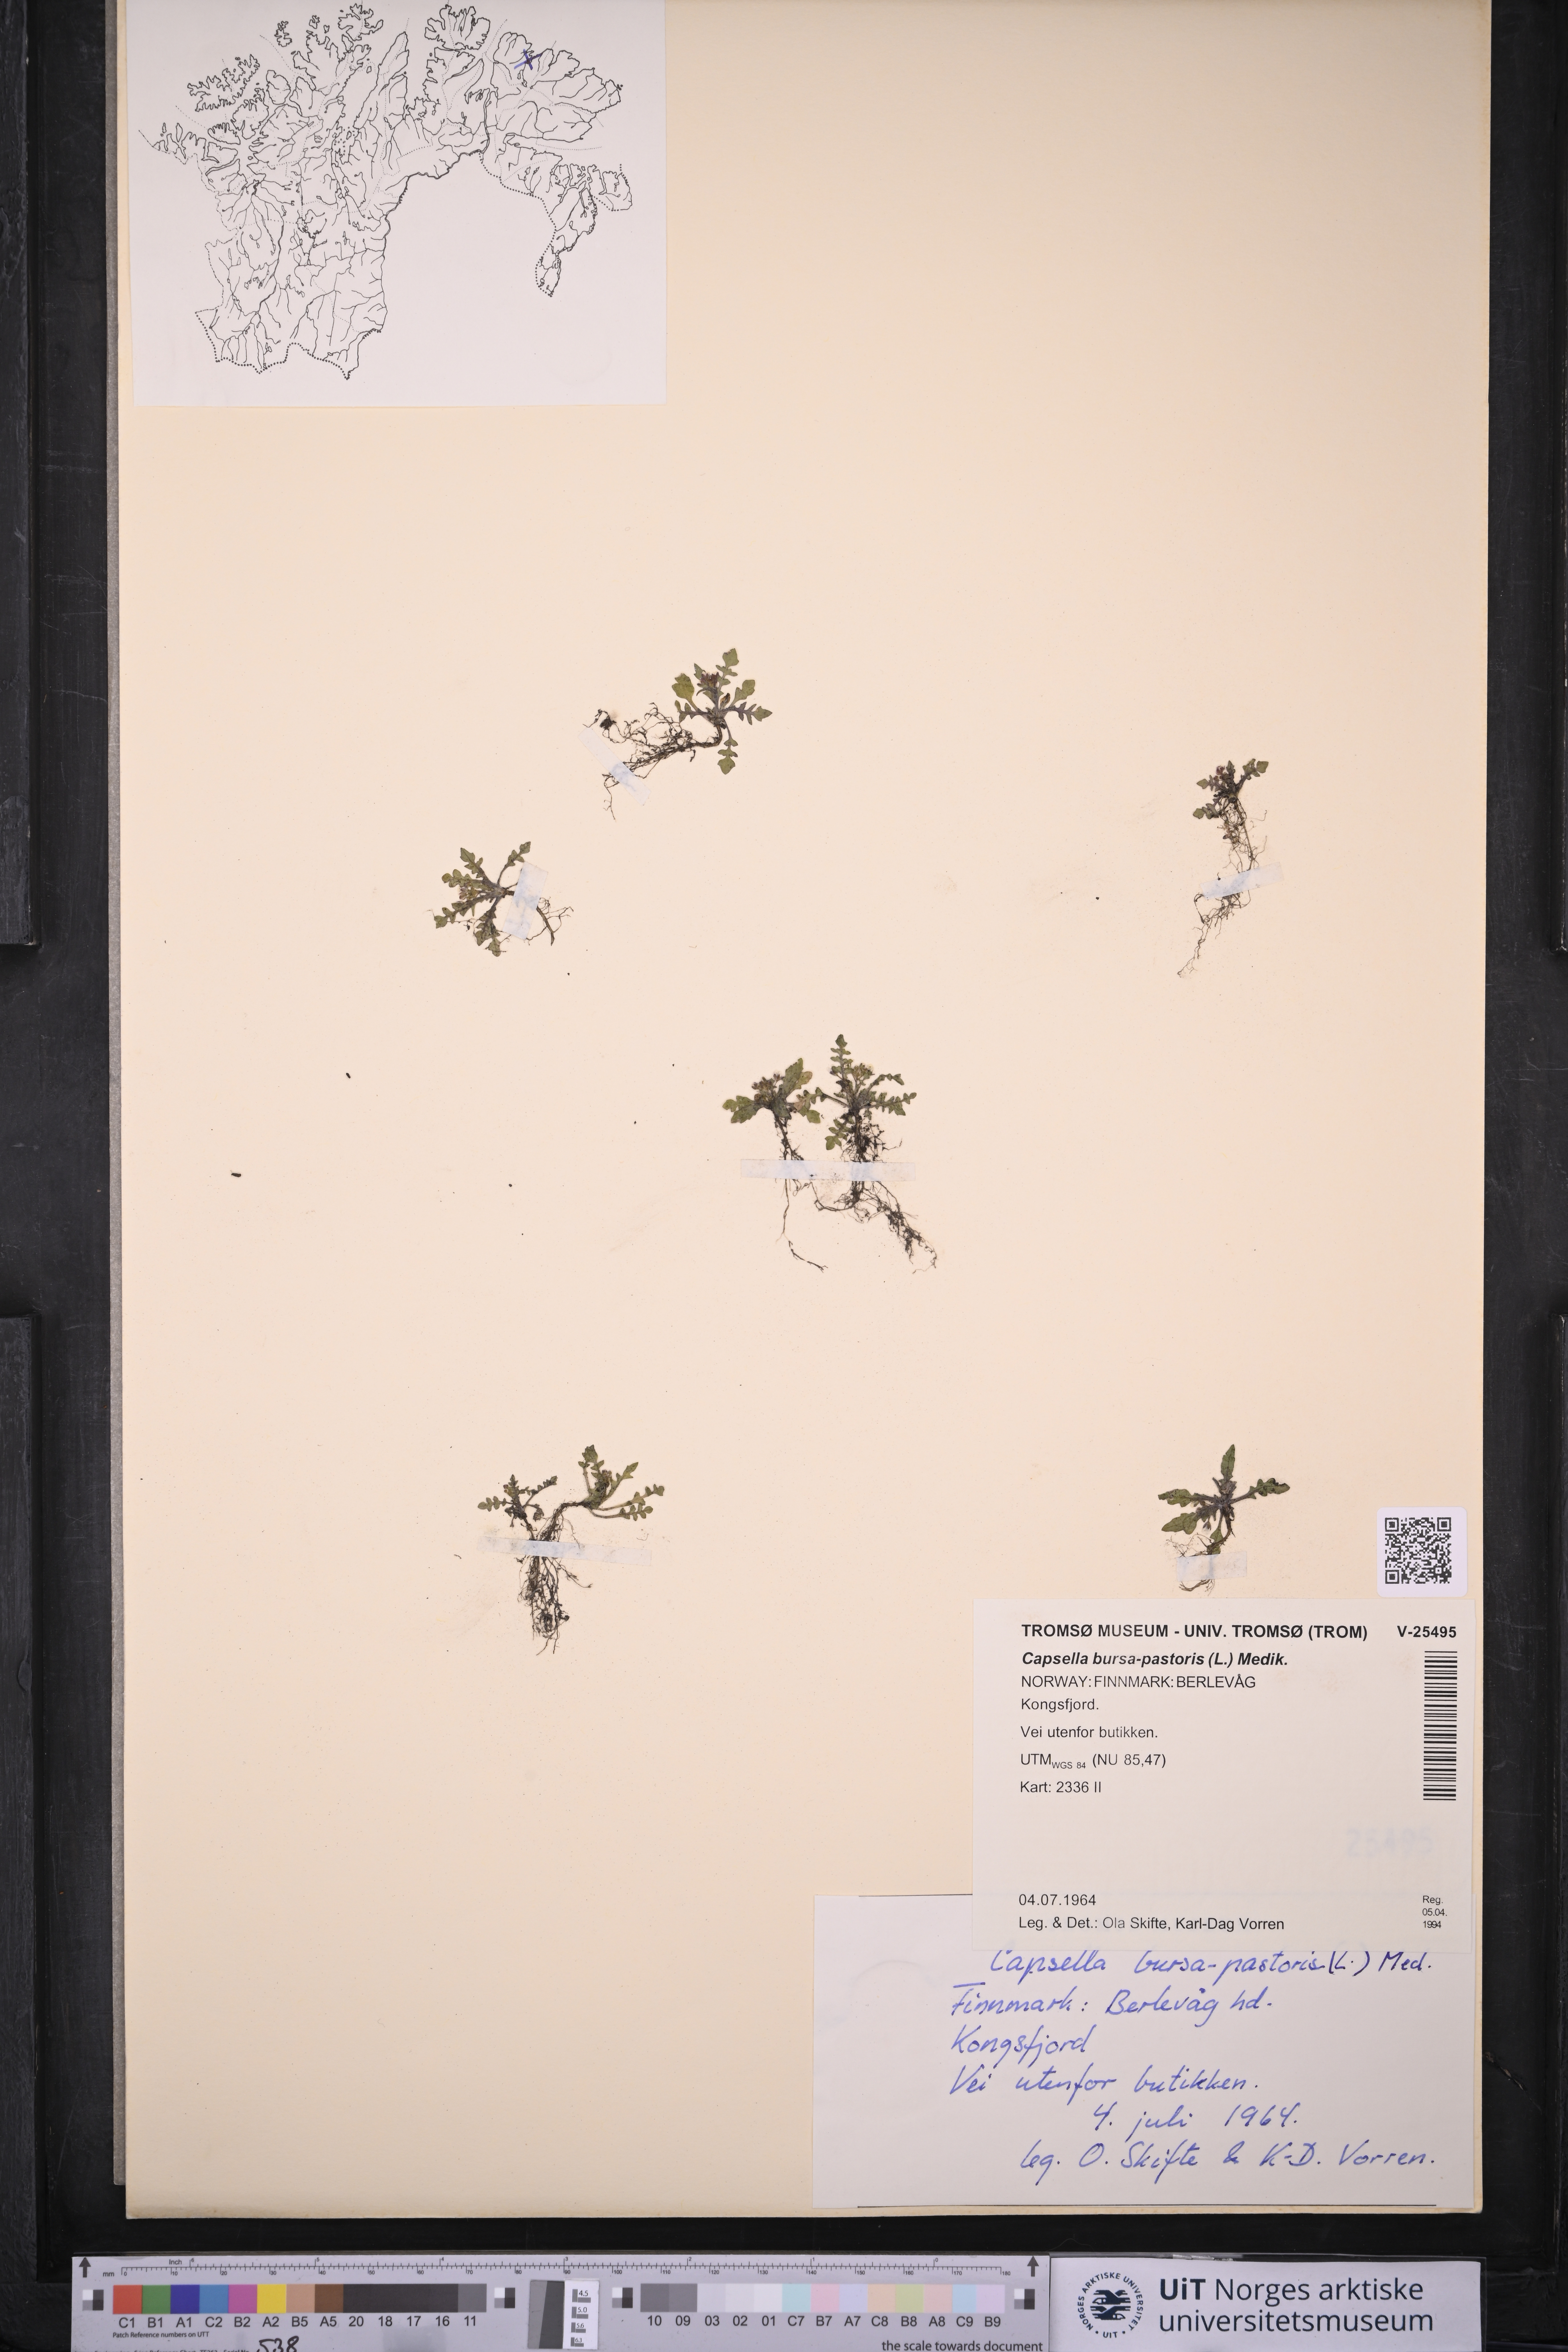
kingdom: Plantae
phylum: Tracheophyta
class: Magnoliopsida
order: Brassicales
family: Brassicaceae
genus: Capsella
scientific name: Capsella bursa-pastoris
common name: Shepherd's purse
